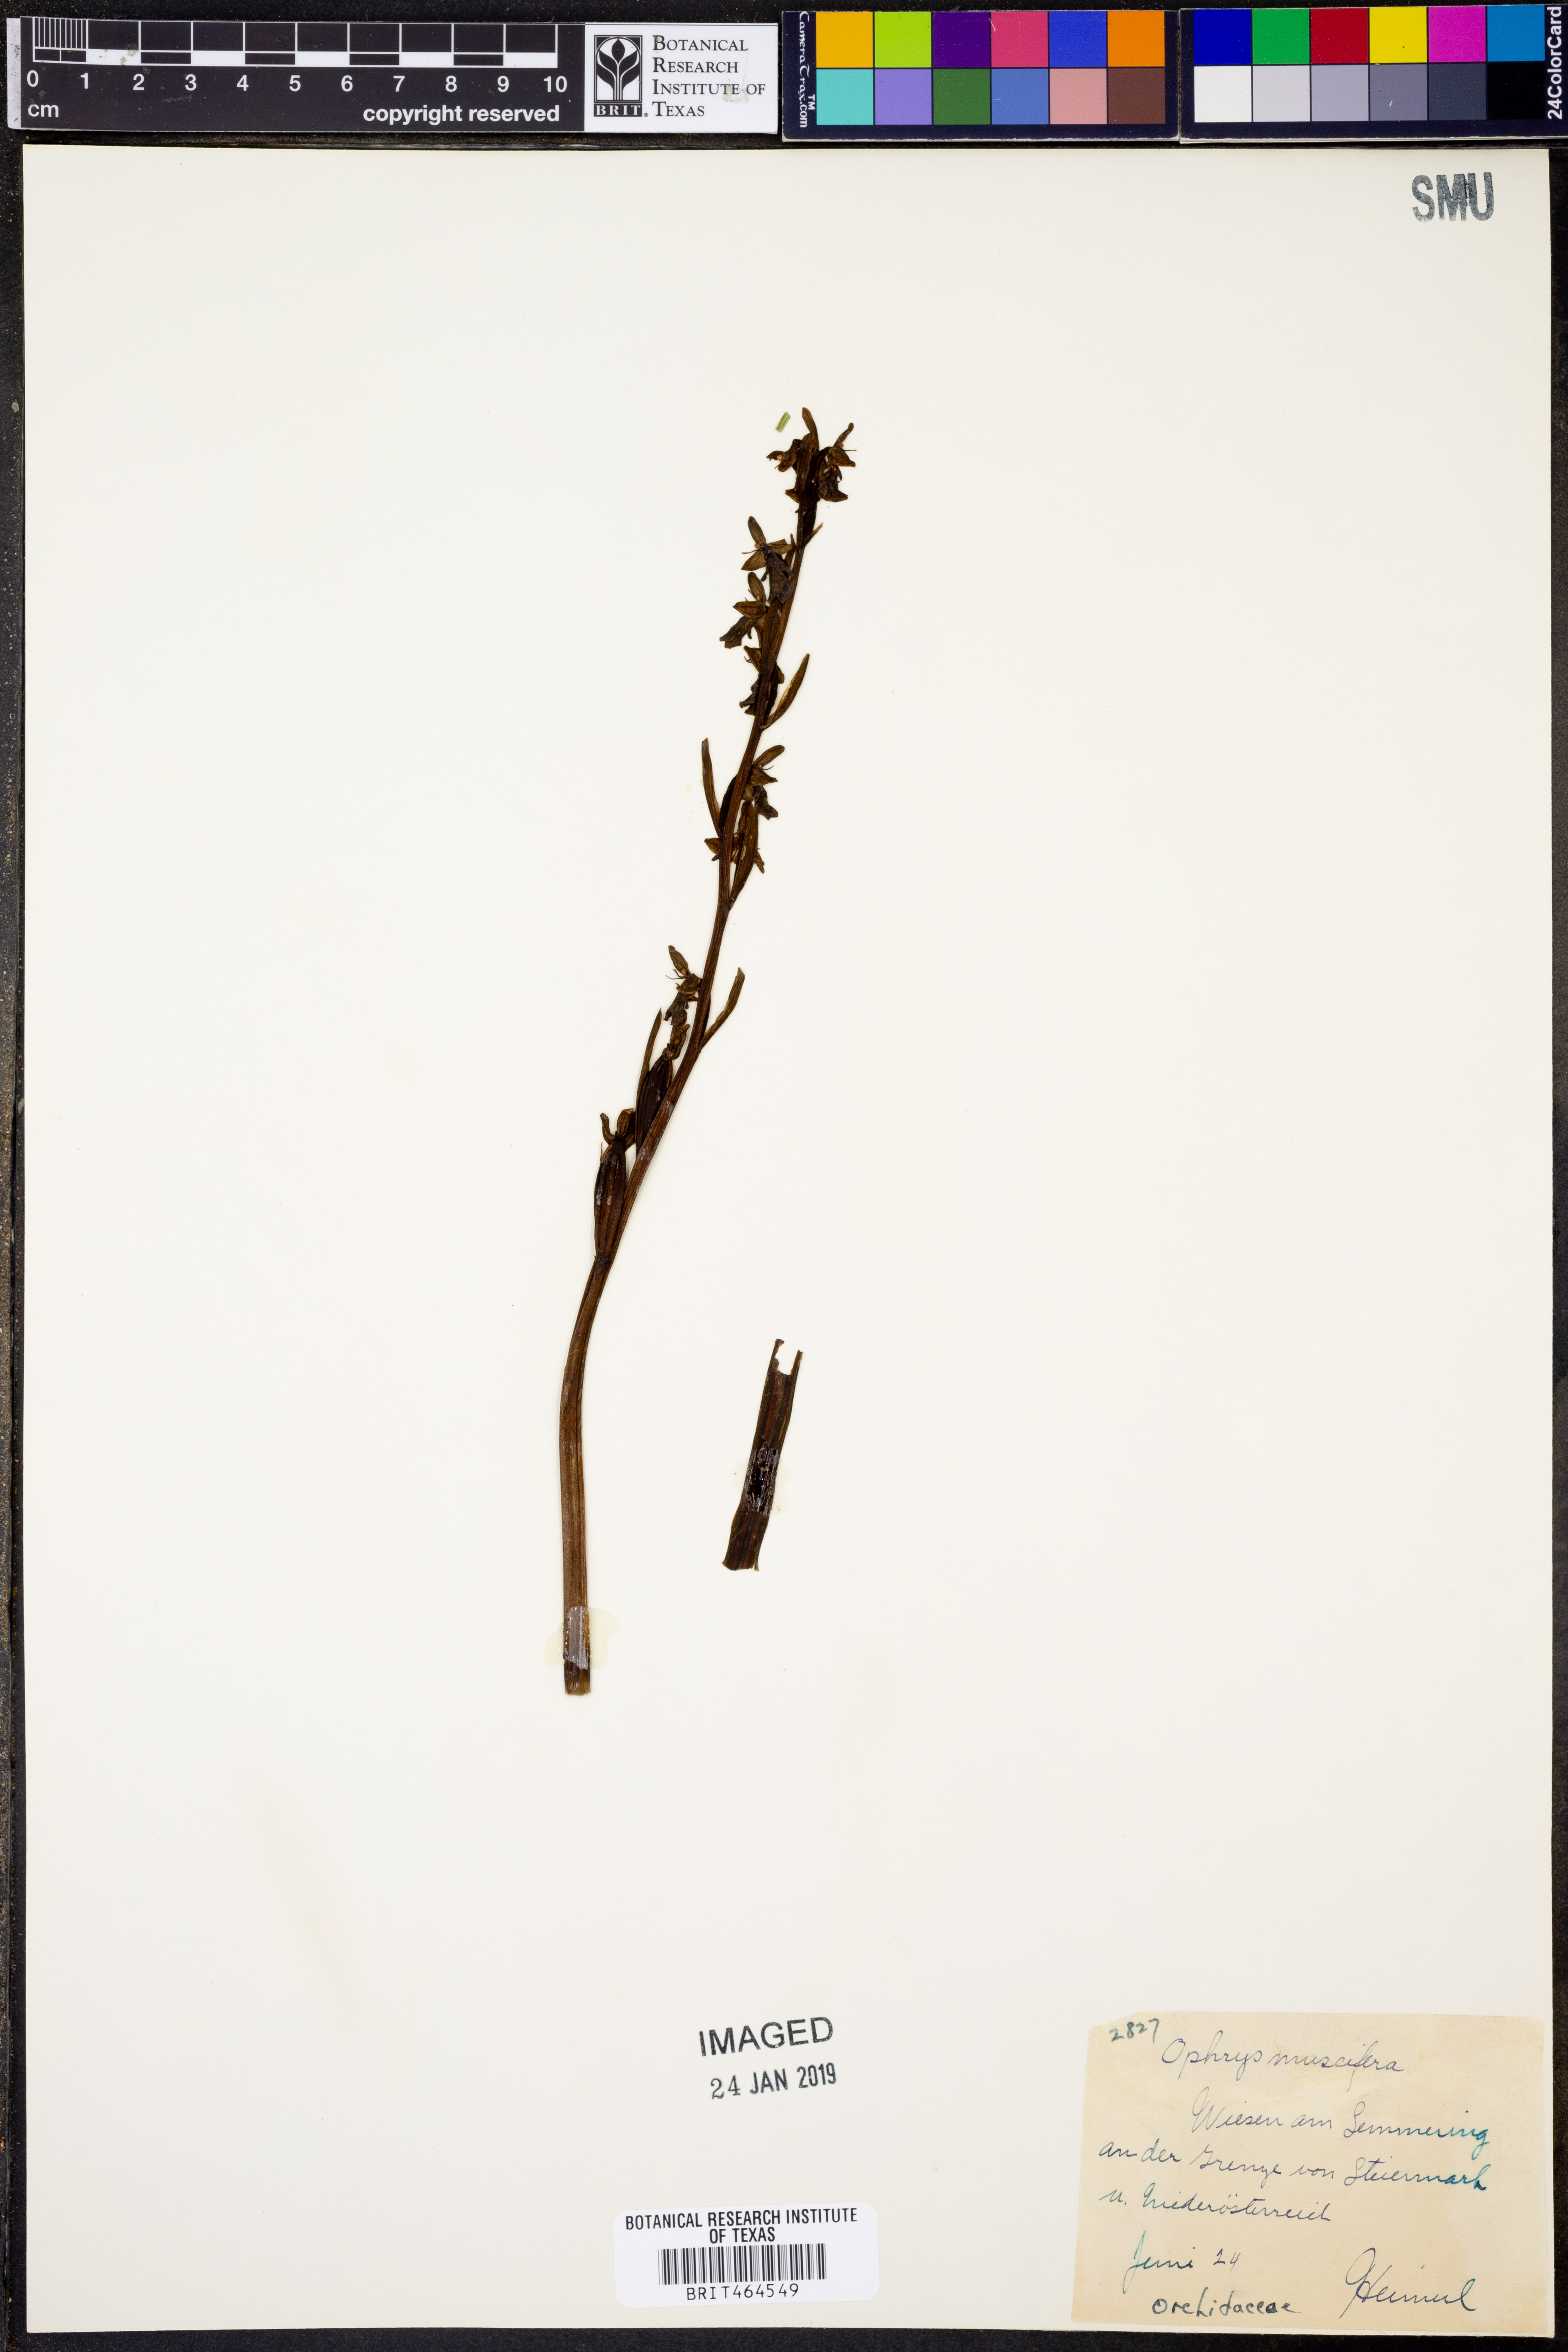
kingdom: Plantae
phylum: Tracheophyta
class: Liliopsida
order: Asparagales
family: Orchidaceae
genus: Ophrys
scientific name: Ophrys insectifera
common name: Fly orchid
